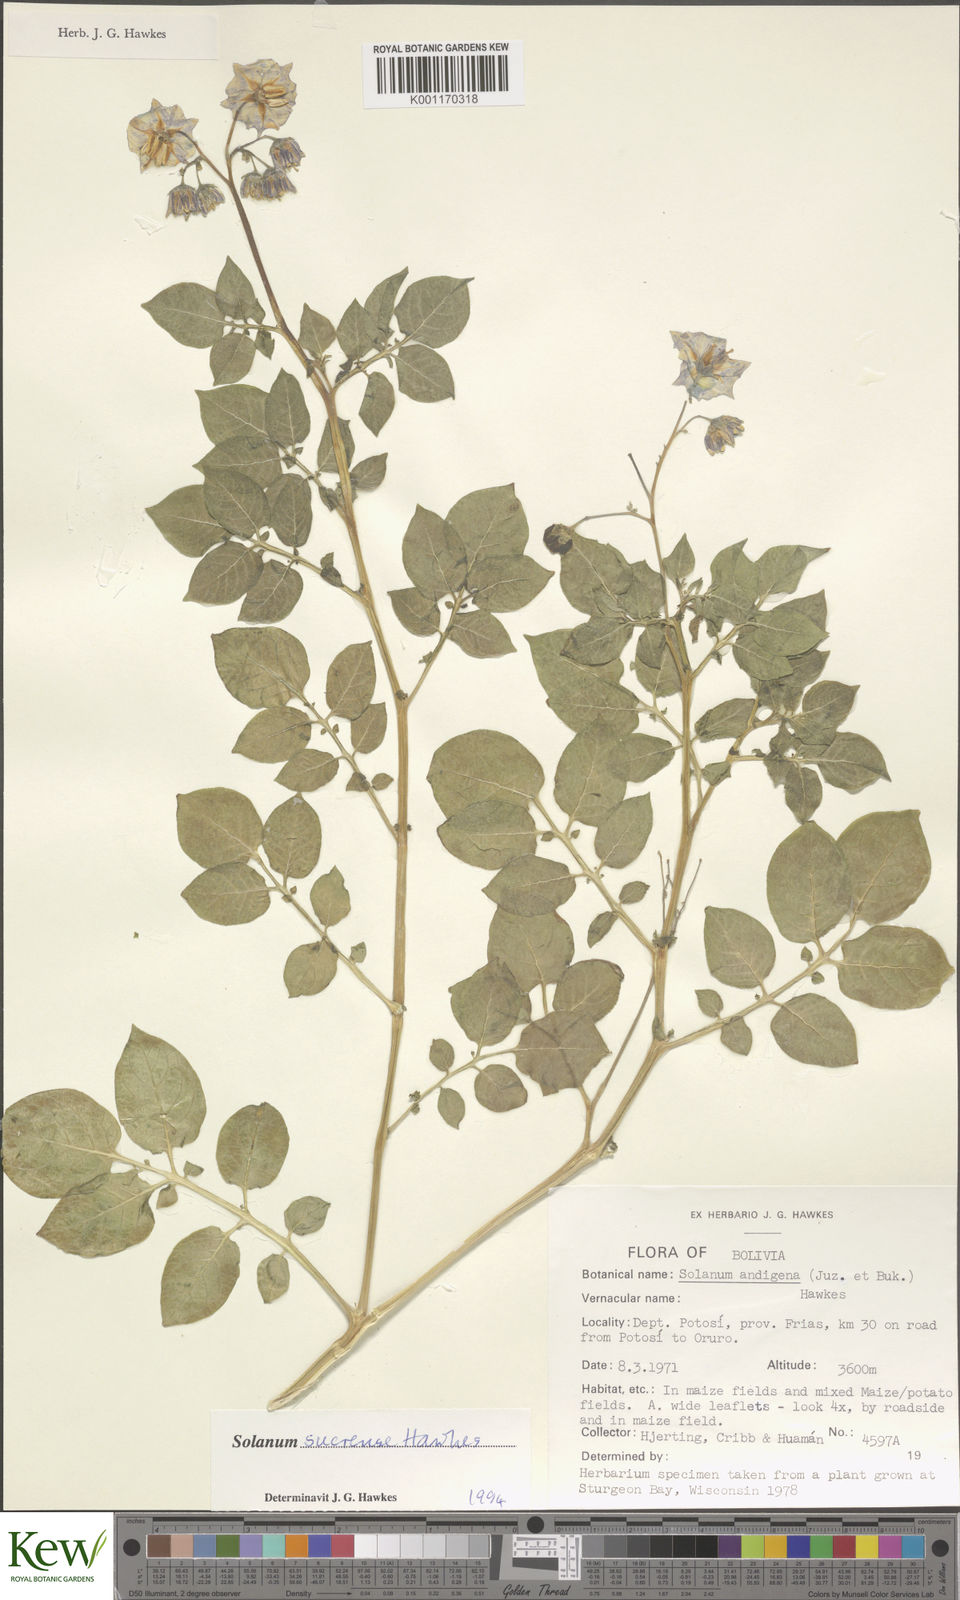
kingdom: Plantae
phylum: Tracheophyta
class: Magnoliopsida
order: Solanales
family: Solanaceae
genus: Solanum
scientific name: Solanum brevicaule
